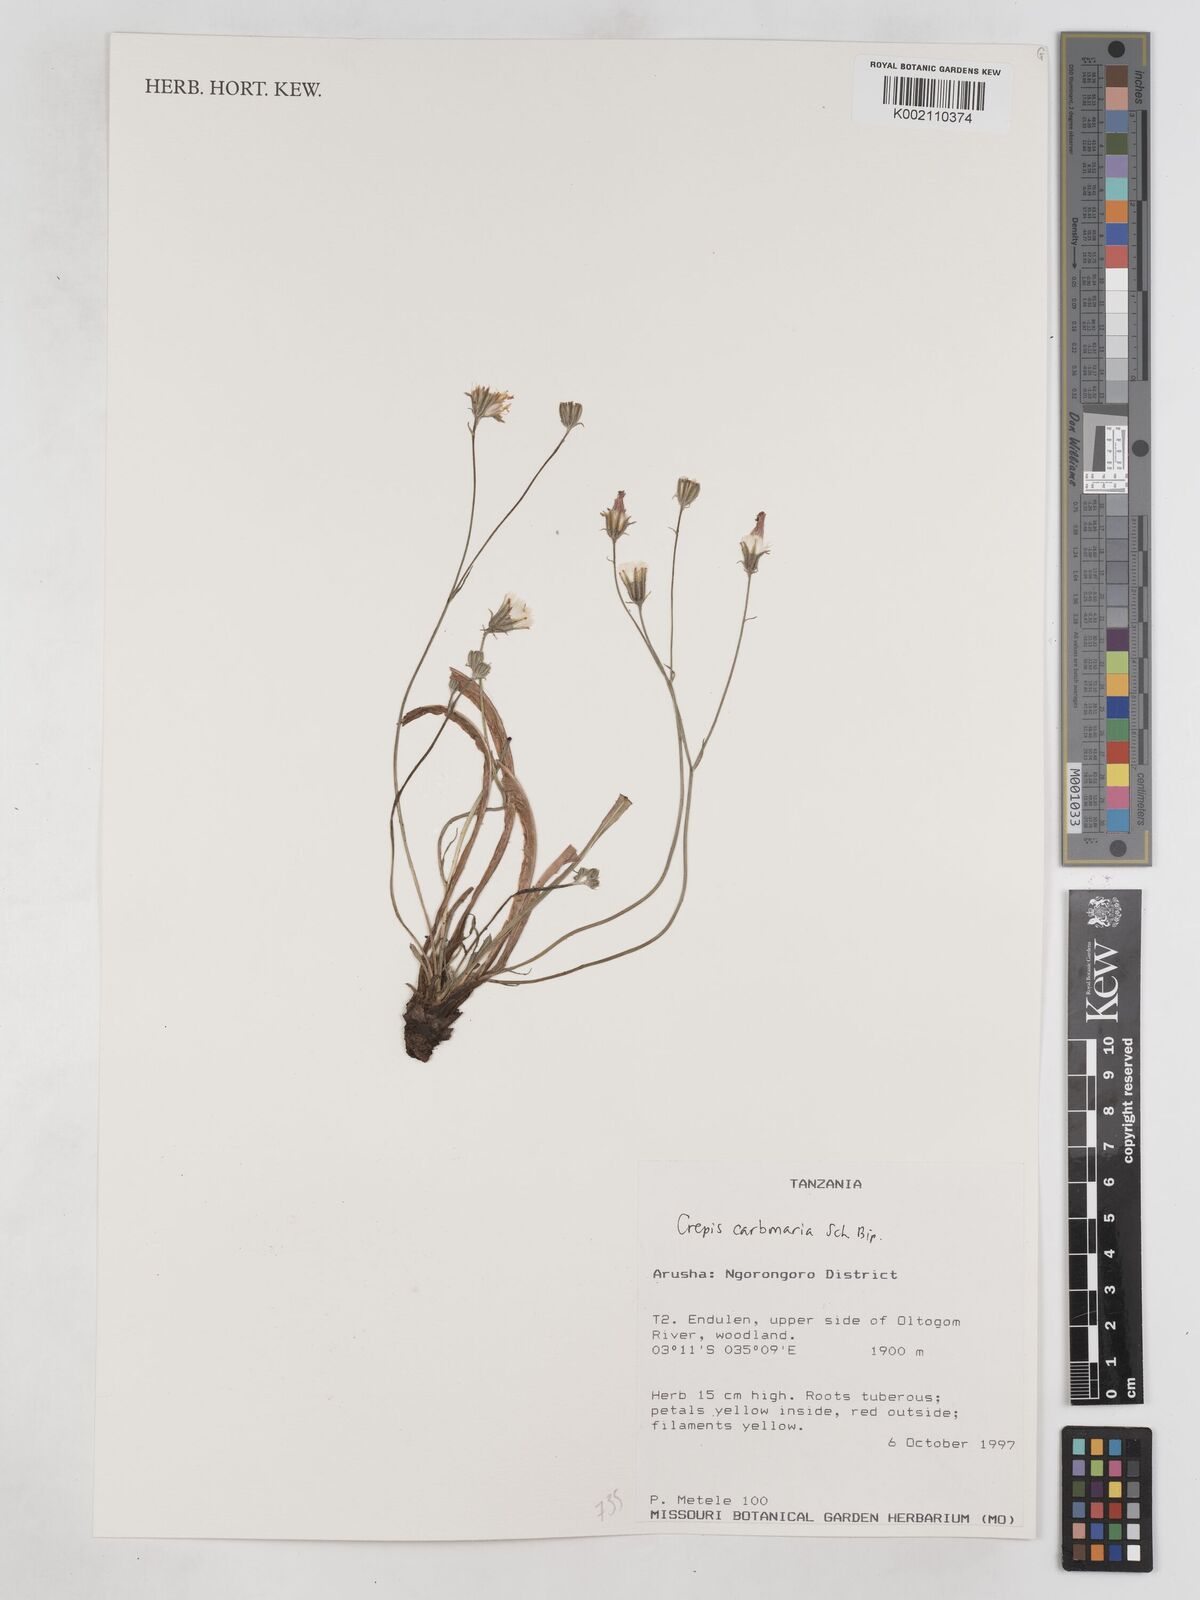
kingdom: Plantae
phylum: Tracheophyta
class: Magnoliopsida
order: Asterales
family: Asteraceae
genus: Crepis
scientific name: Crepis carbonaria
